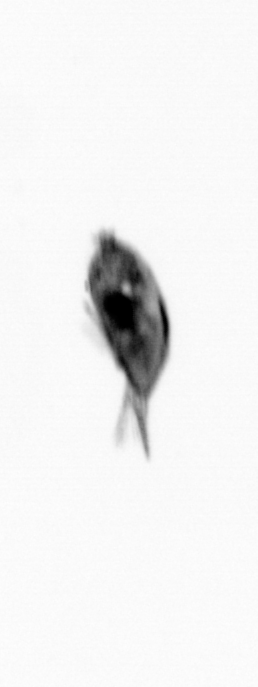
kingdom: Animalia
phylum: Arthropoda
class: Maxillopoda
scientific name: Maxillopoda
